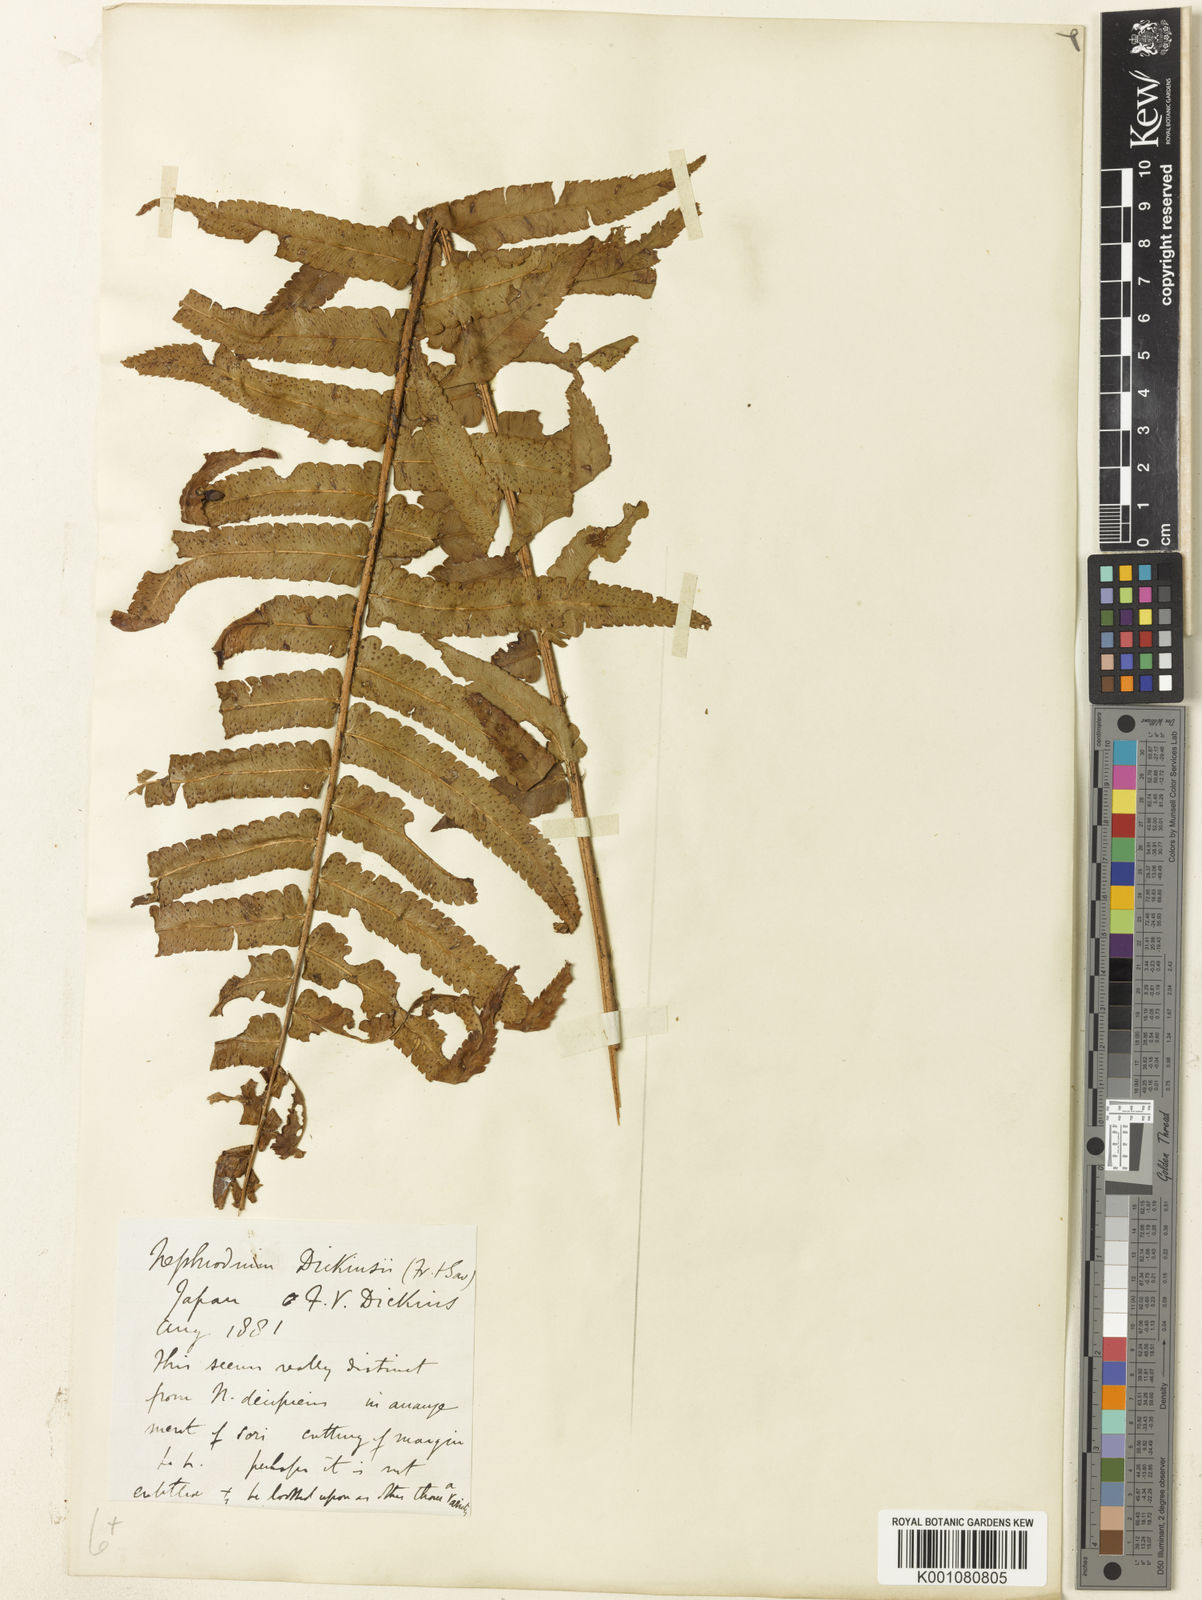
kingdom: Plantae
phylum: Tracheophyta
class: Polypodiopsida
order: Polypodiales
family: Dryopteridaceae
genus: Dryopteris
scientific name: Dryopteris dickinsii
